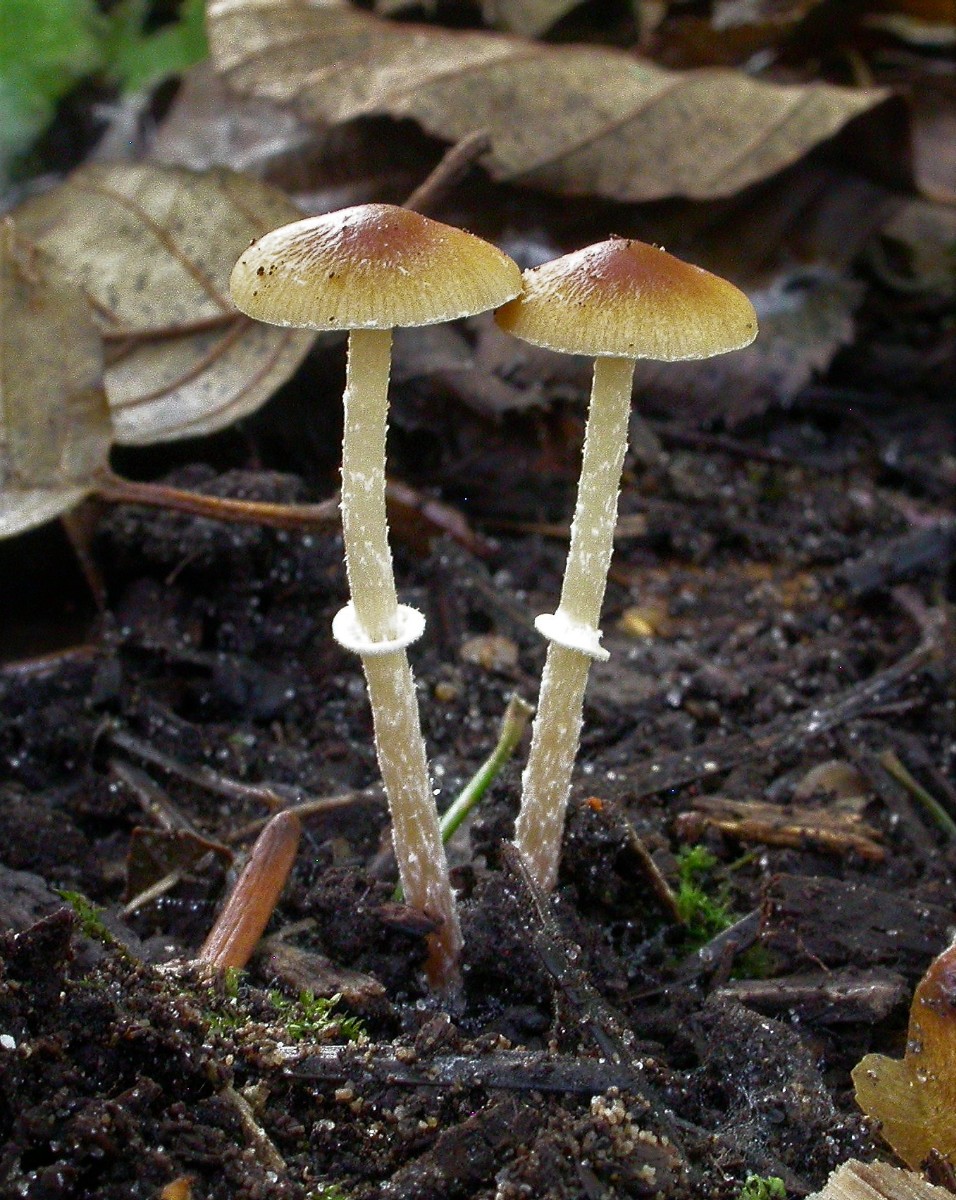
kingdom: Fungi
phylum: Basidiomycota
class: Agaricomycetes
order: Agaricales
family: Bolbitiaceae
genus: Conocybe
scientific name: Conocybe arrhenii
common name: ring-dansehat
